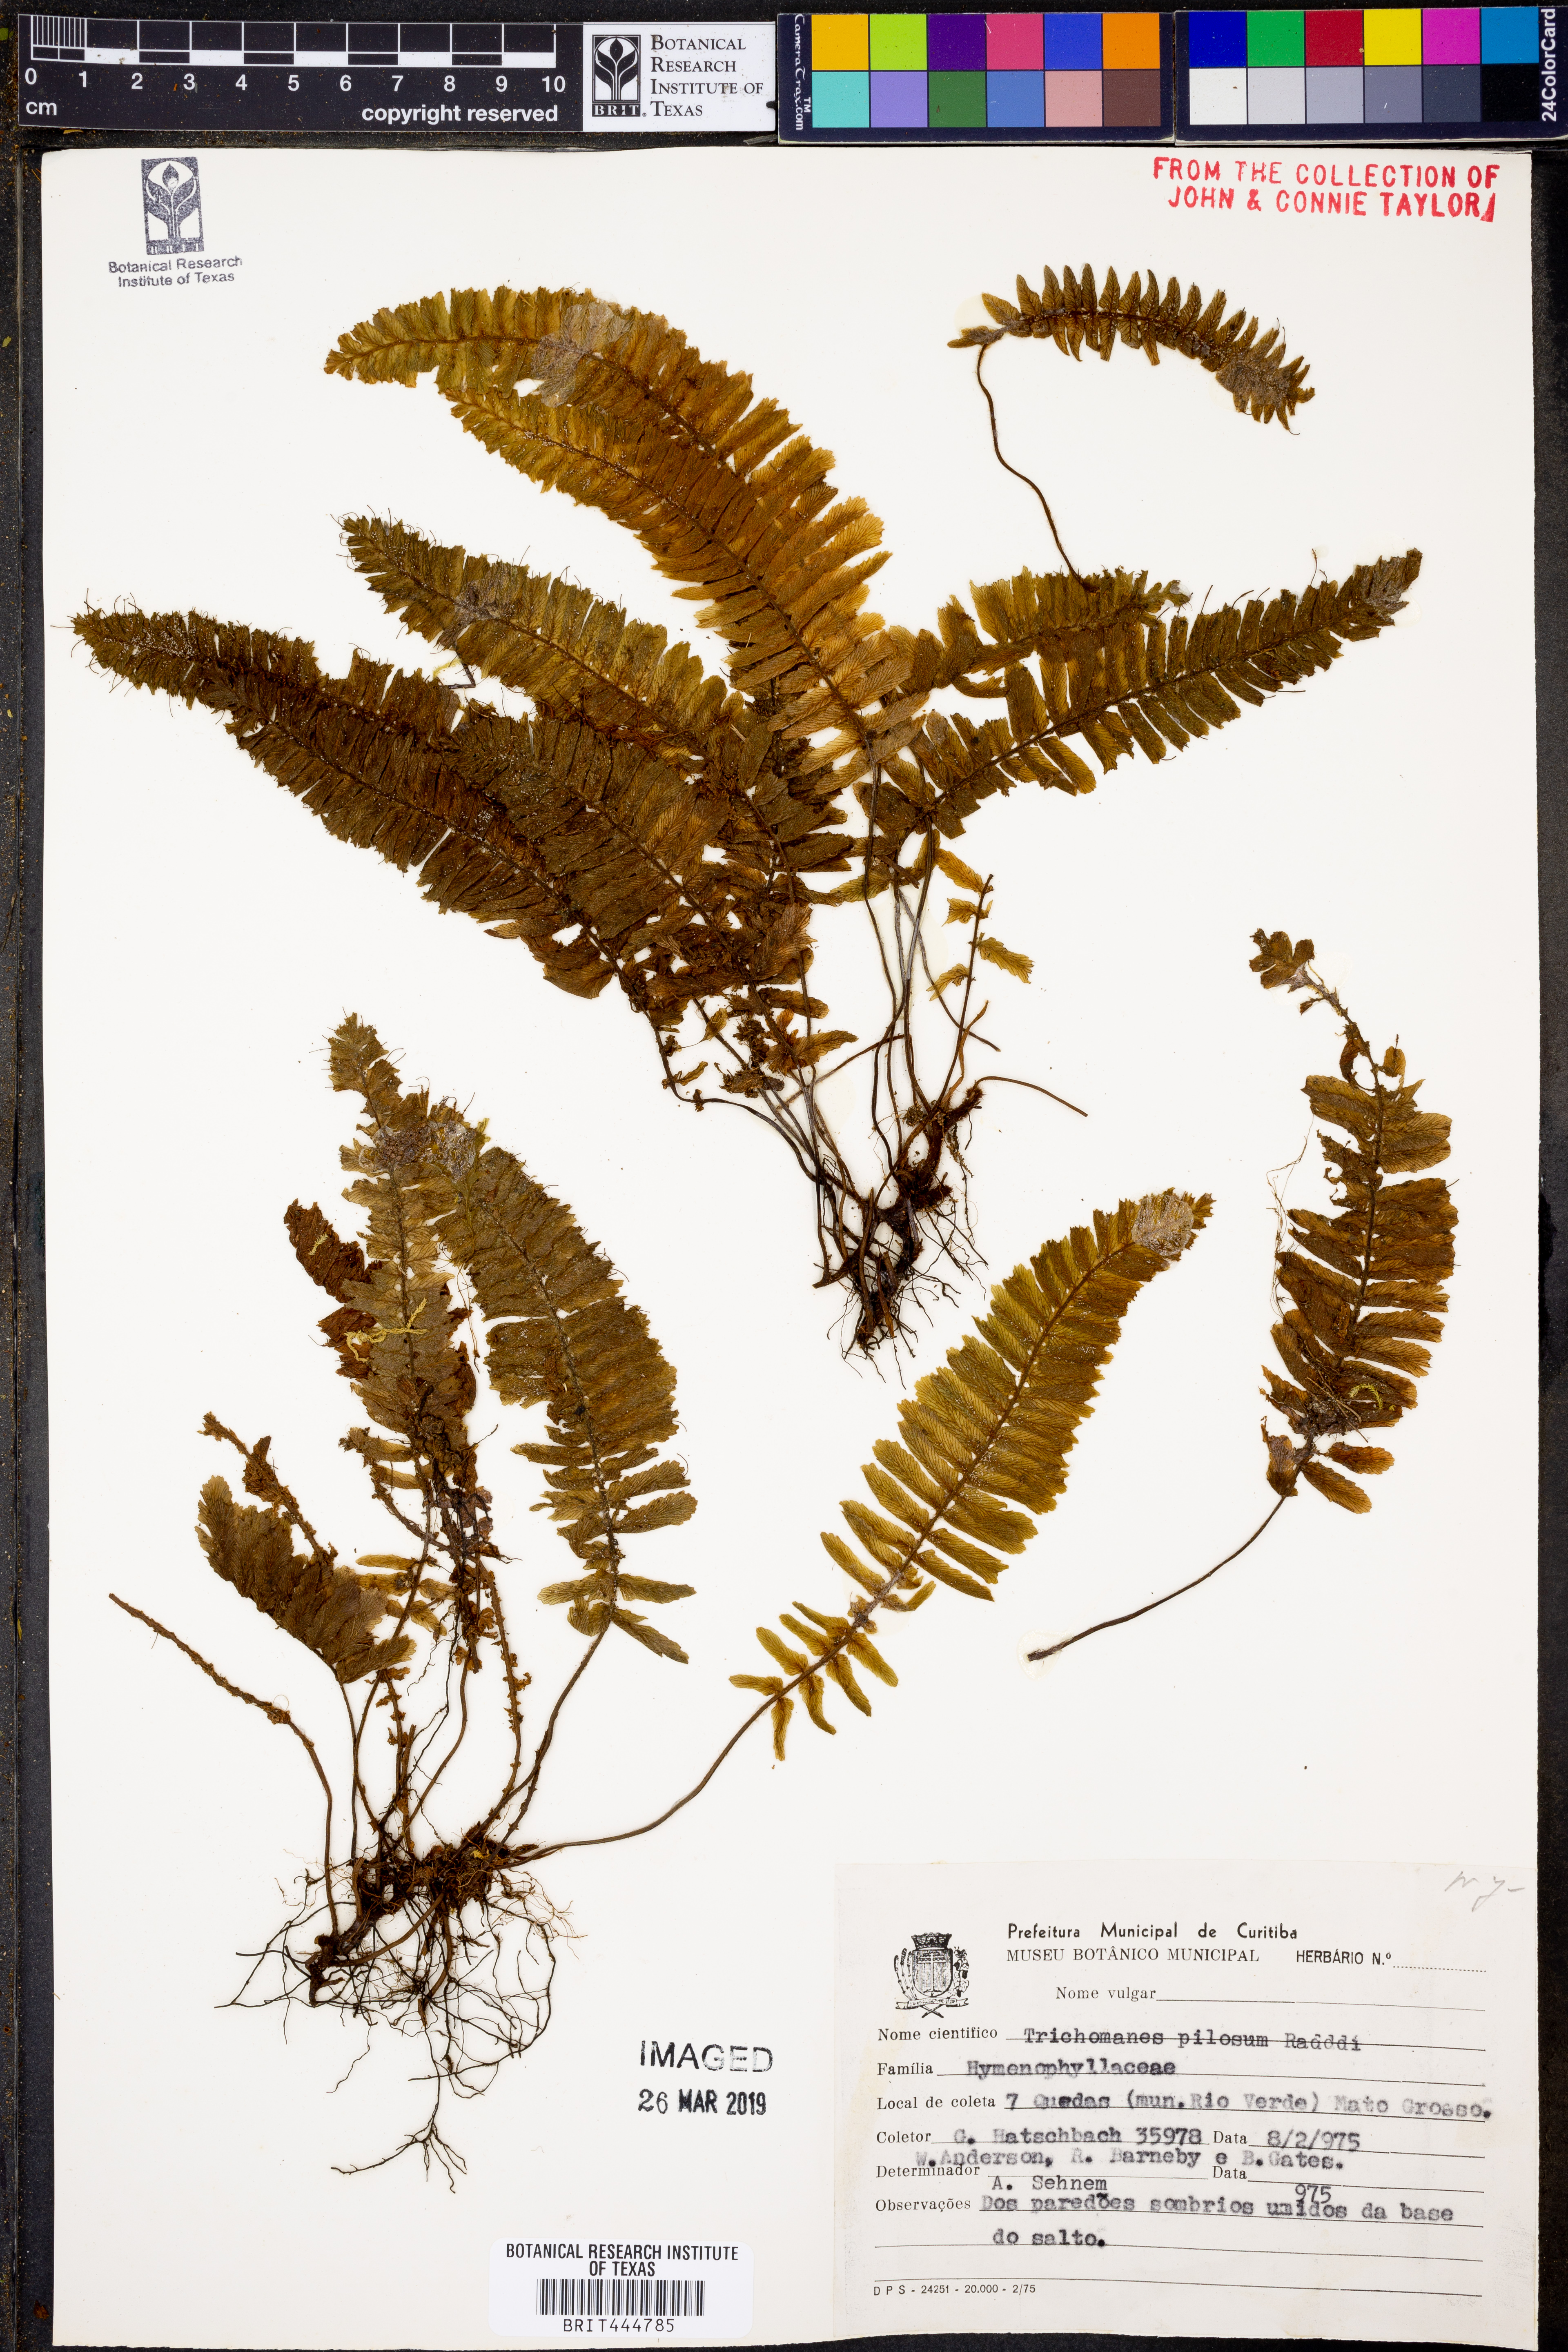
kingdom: Plantae
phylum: Tracheophyta
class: Polypodiopsida
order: Hymenophyllales
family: Hymenophyllaceae
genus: Trichomanes
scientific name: Trichomanes pilosum
